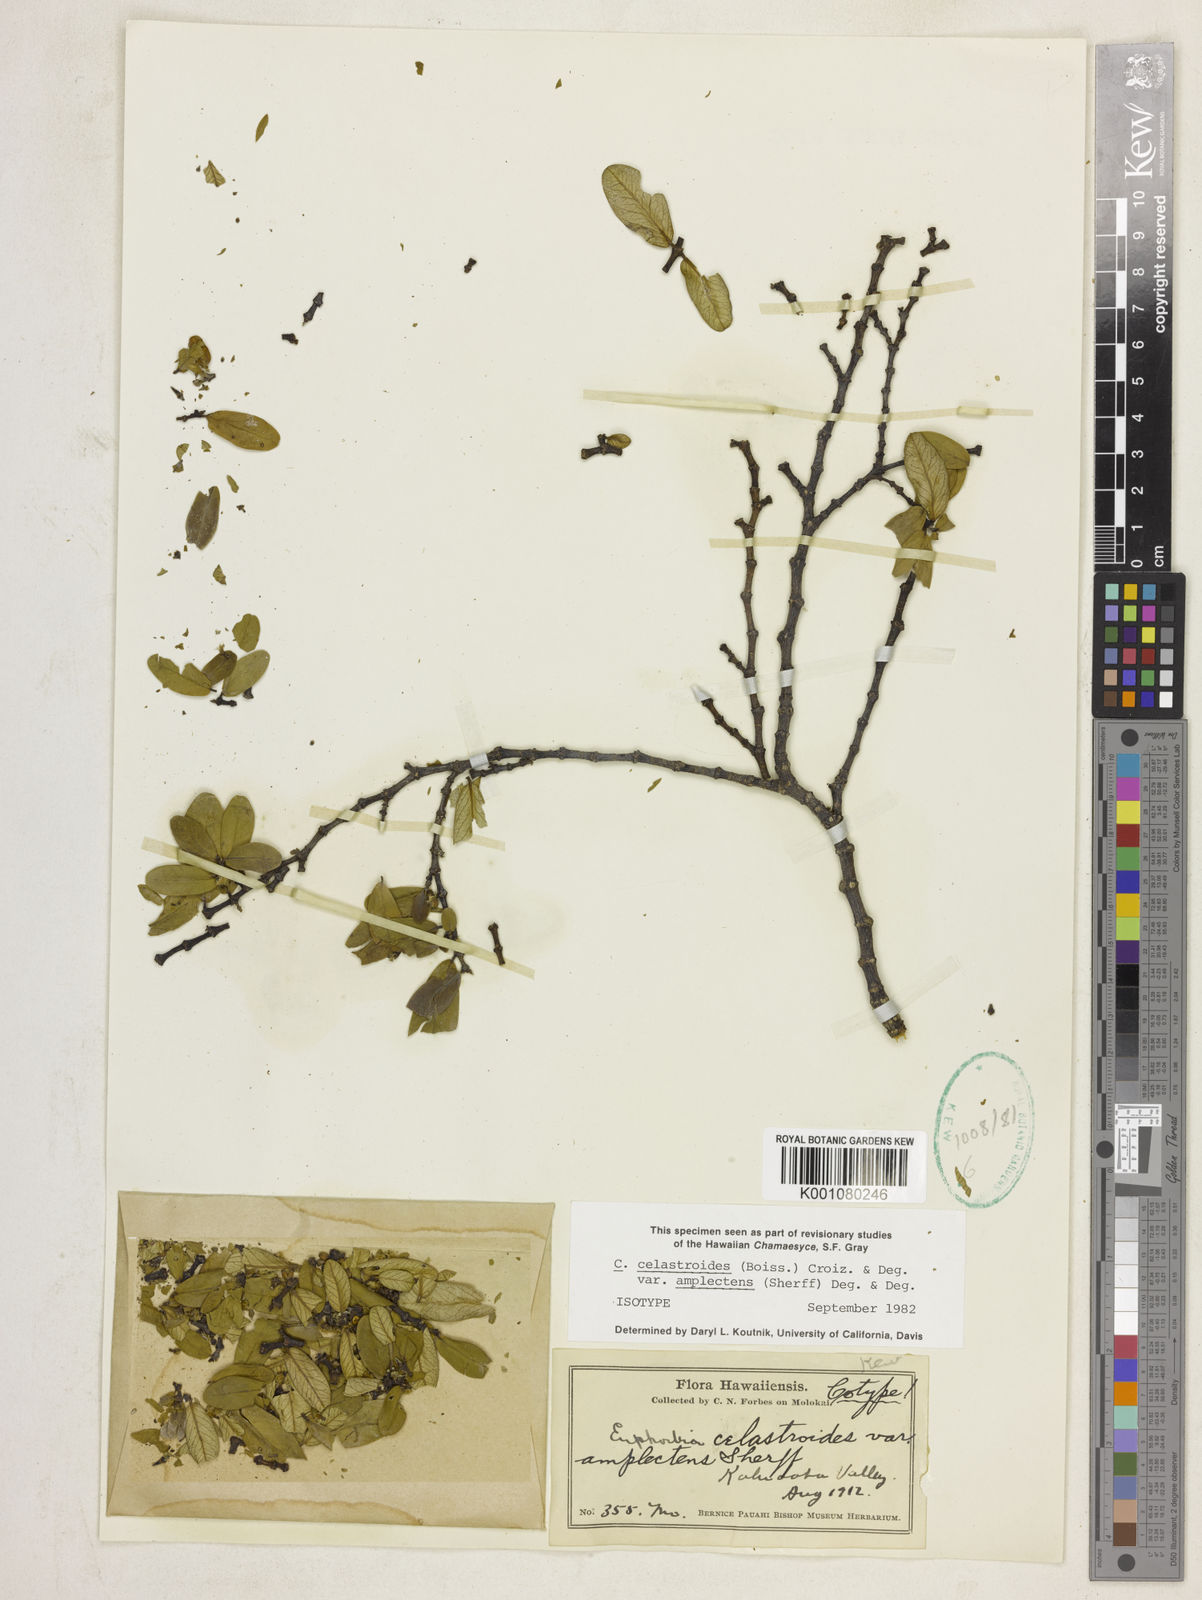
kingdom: Plantae
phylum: Tracheophyta
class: Magnoliopsida
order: Malpighiales
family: Euphorbiaceae
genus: Euphorbia
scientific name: Euphorbia celastroides
